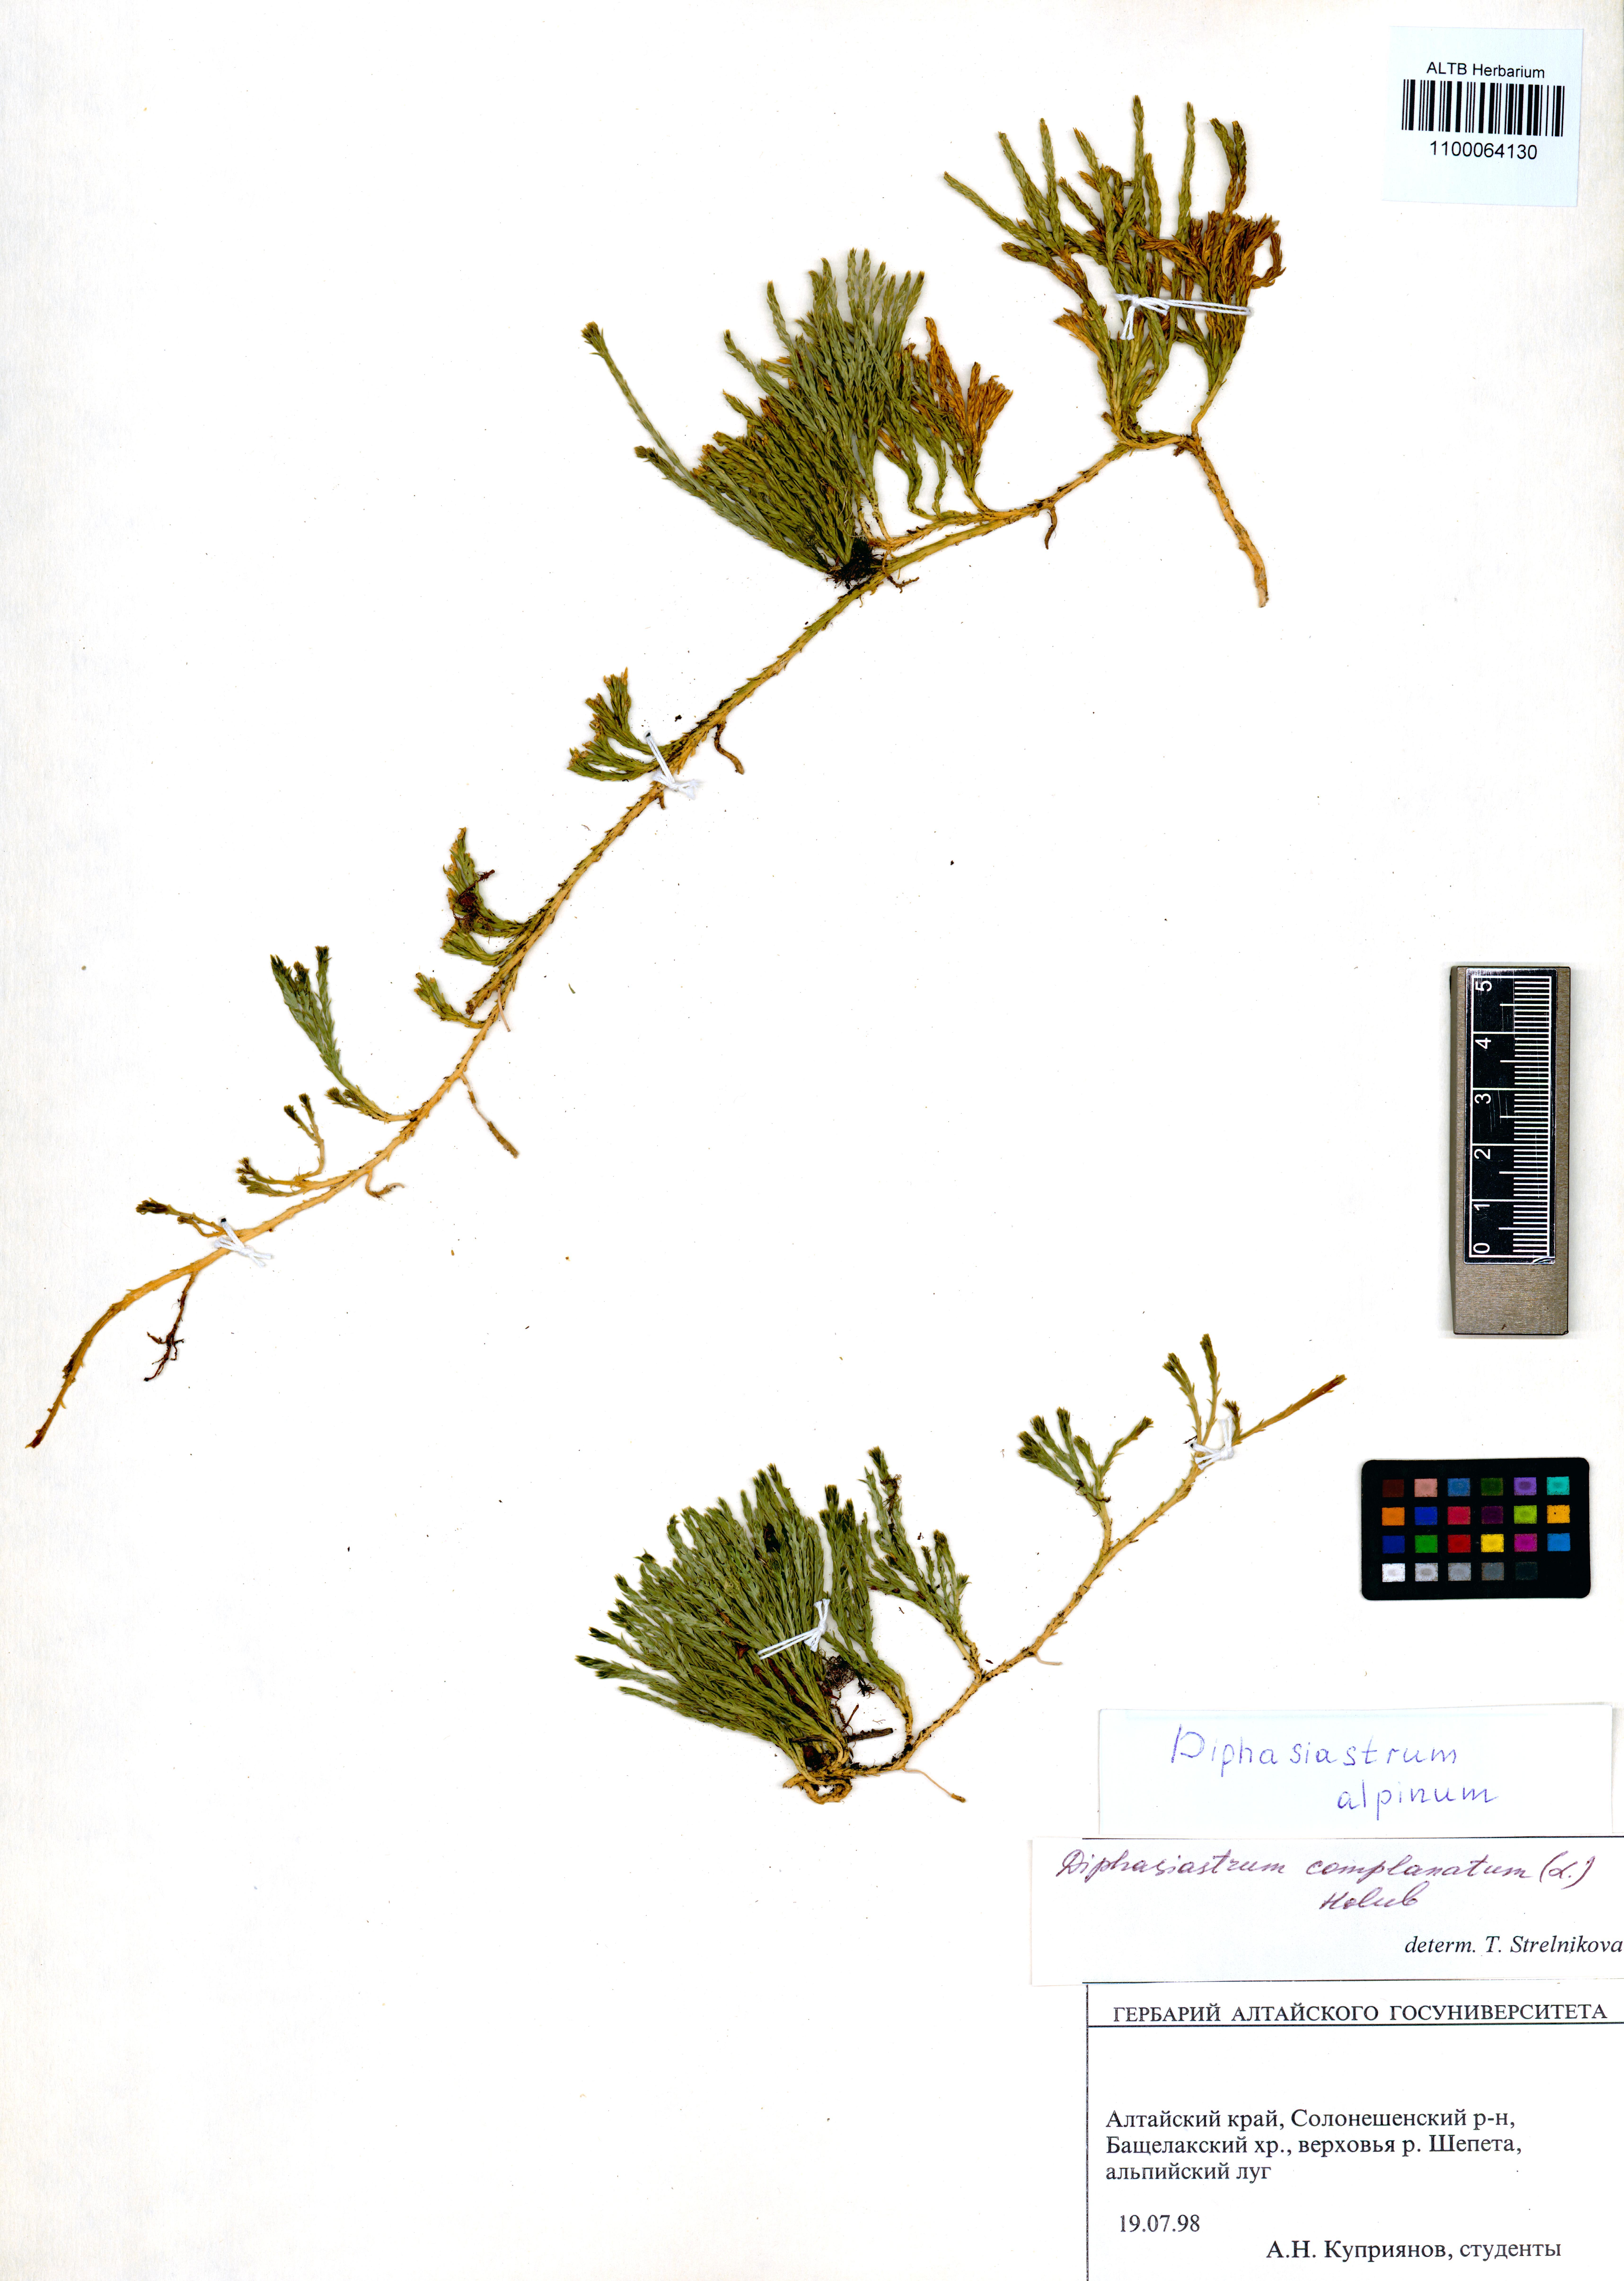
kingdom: Plantae
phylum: Tracheophyta
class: Lycopodiopsida
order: Lycopodiales
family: Lycopodiaceae
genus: Diphasiastrum
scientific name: Diphasiastrum alpinum
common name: Alpine clubmoss
